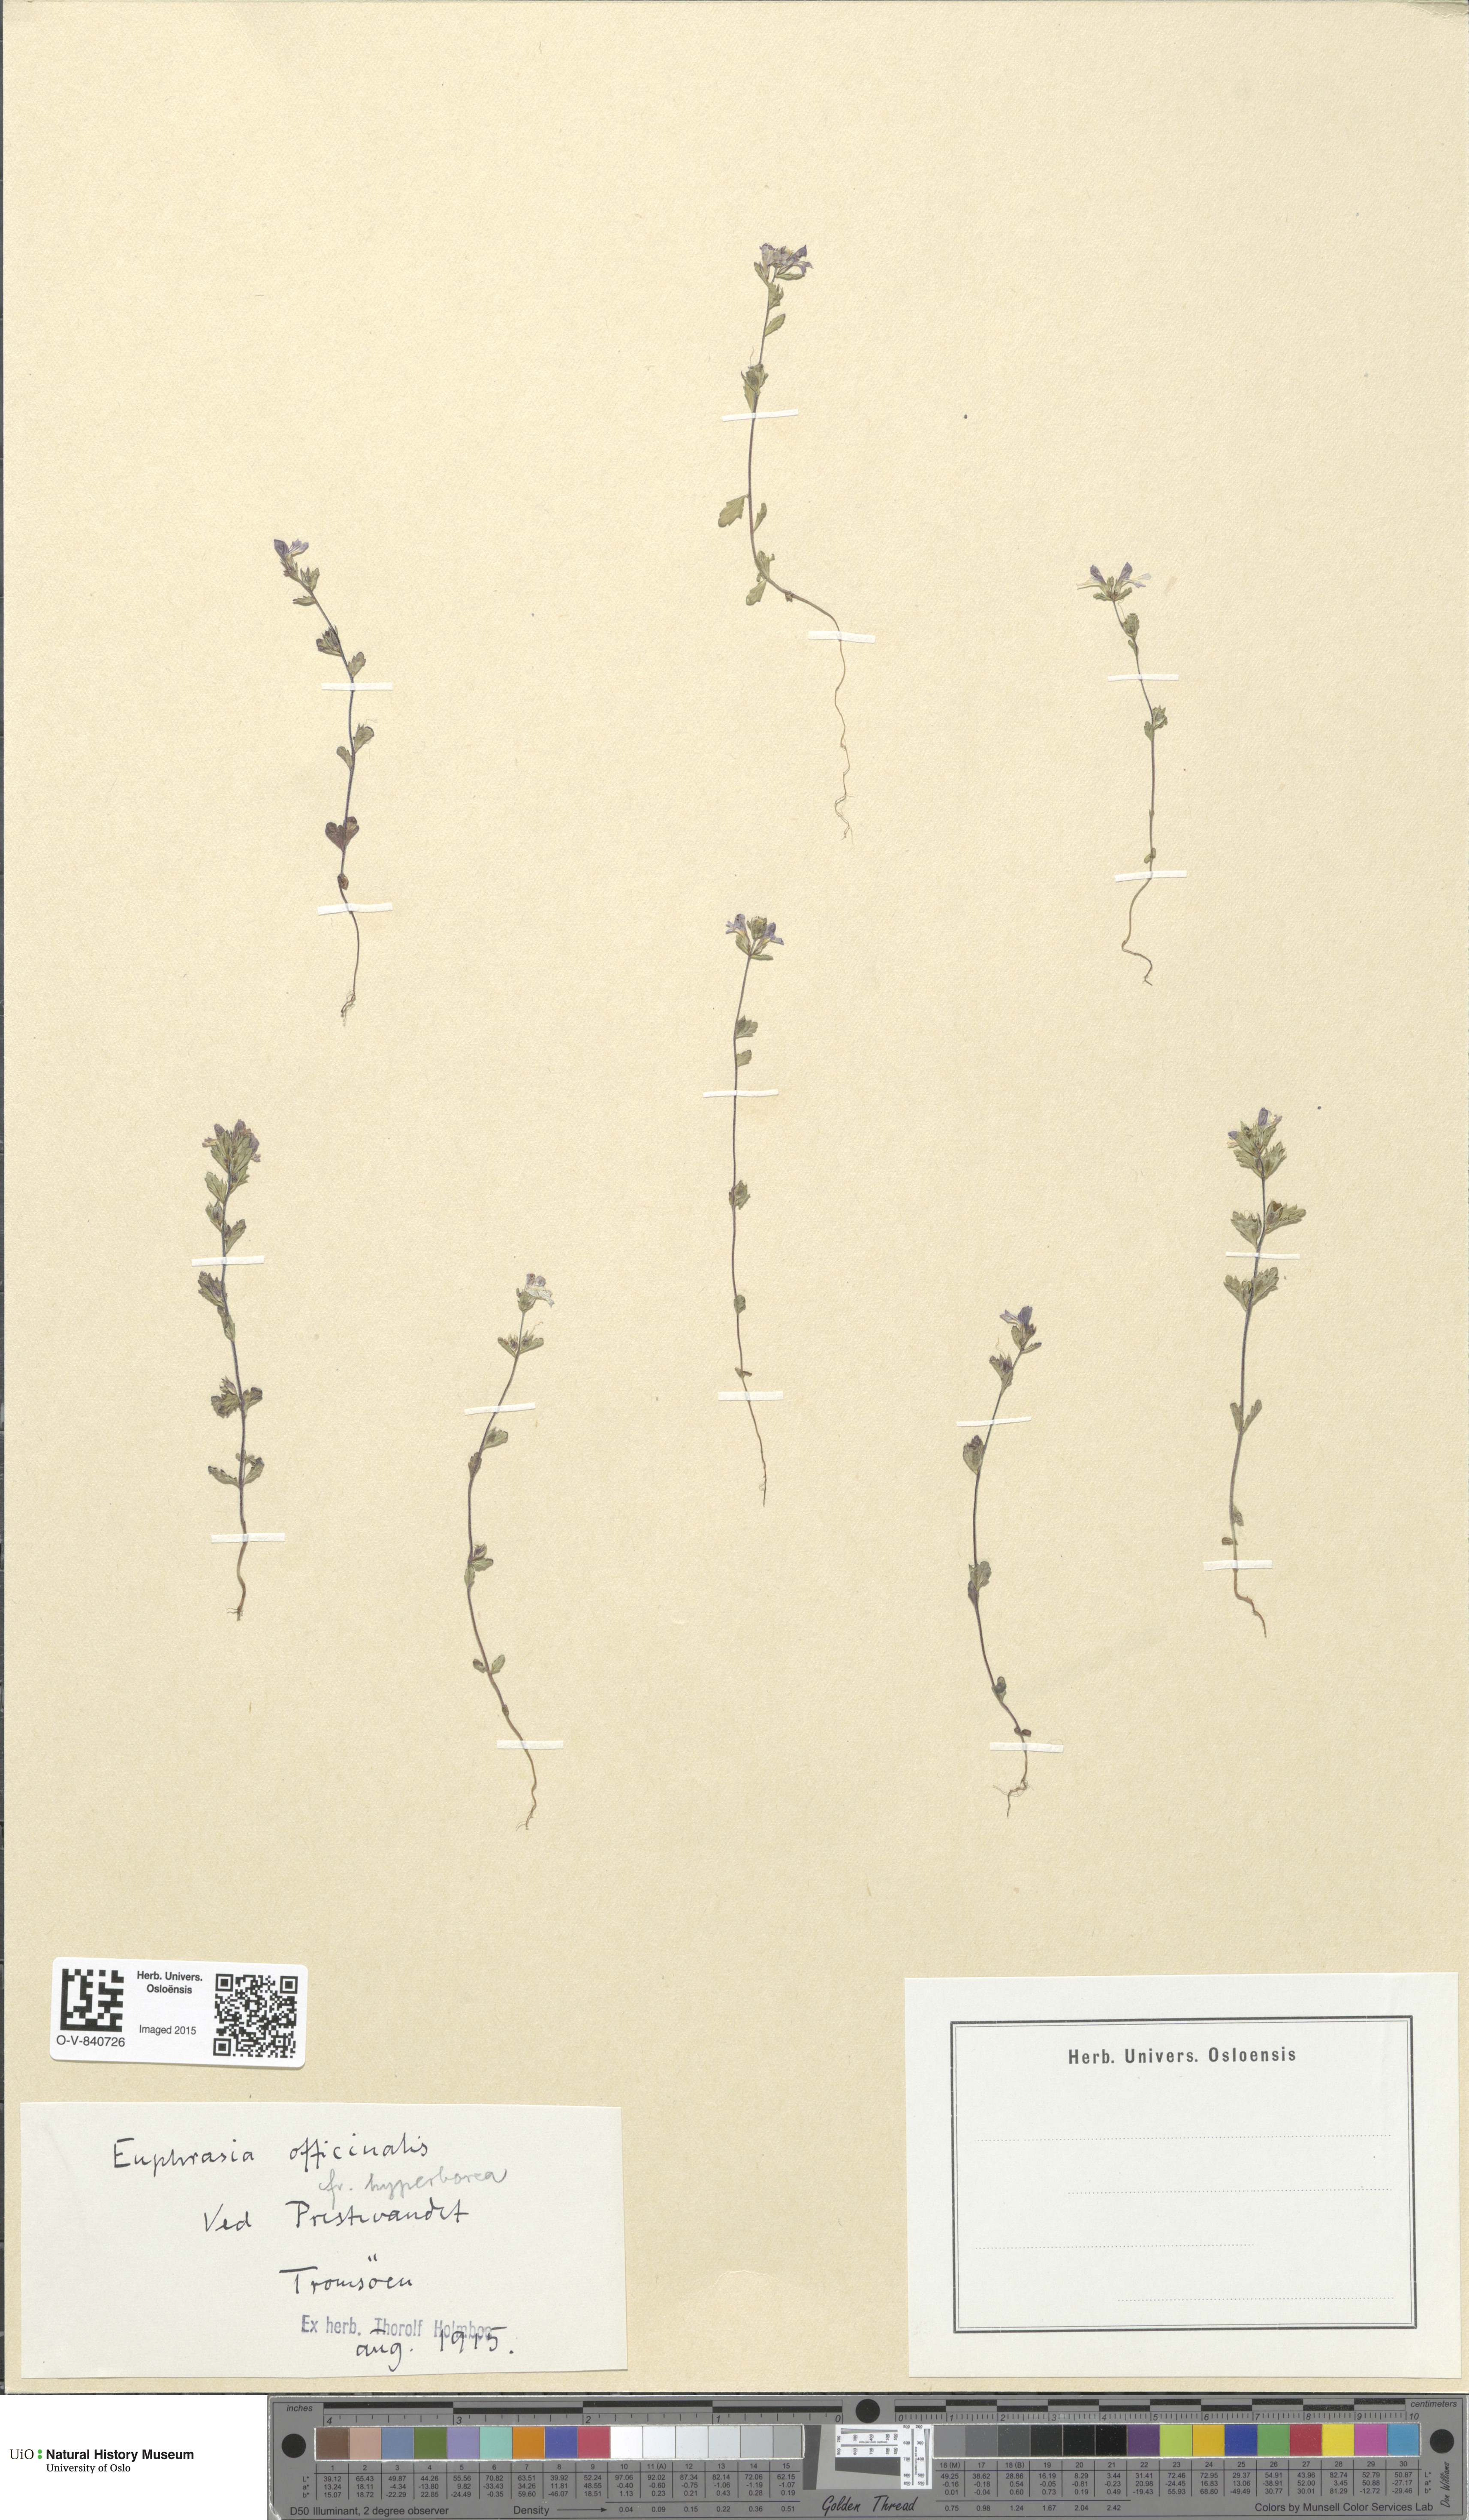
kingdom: Plantae
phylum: Tracheophyta
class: Magnoliopsida
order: Lamiales
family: Orobanchaceae
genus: Euphrasia
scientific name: Euphrasia stricta
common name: Drug eyebright
